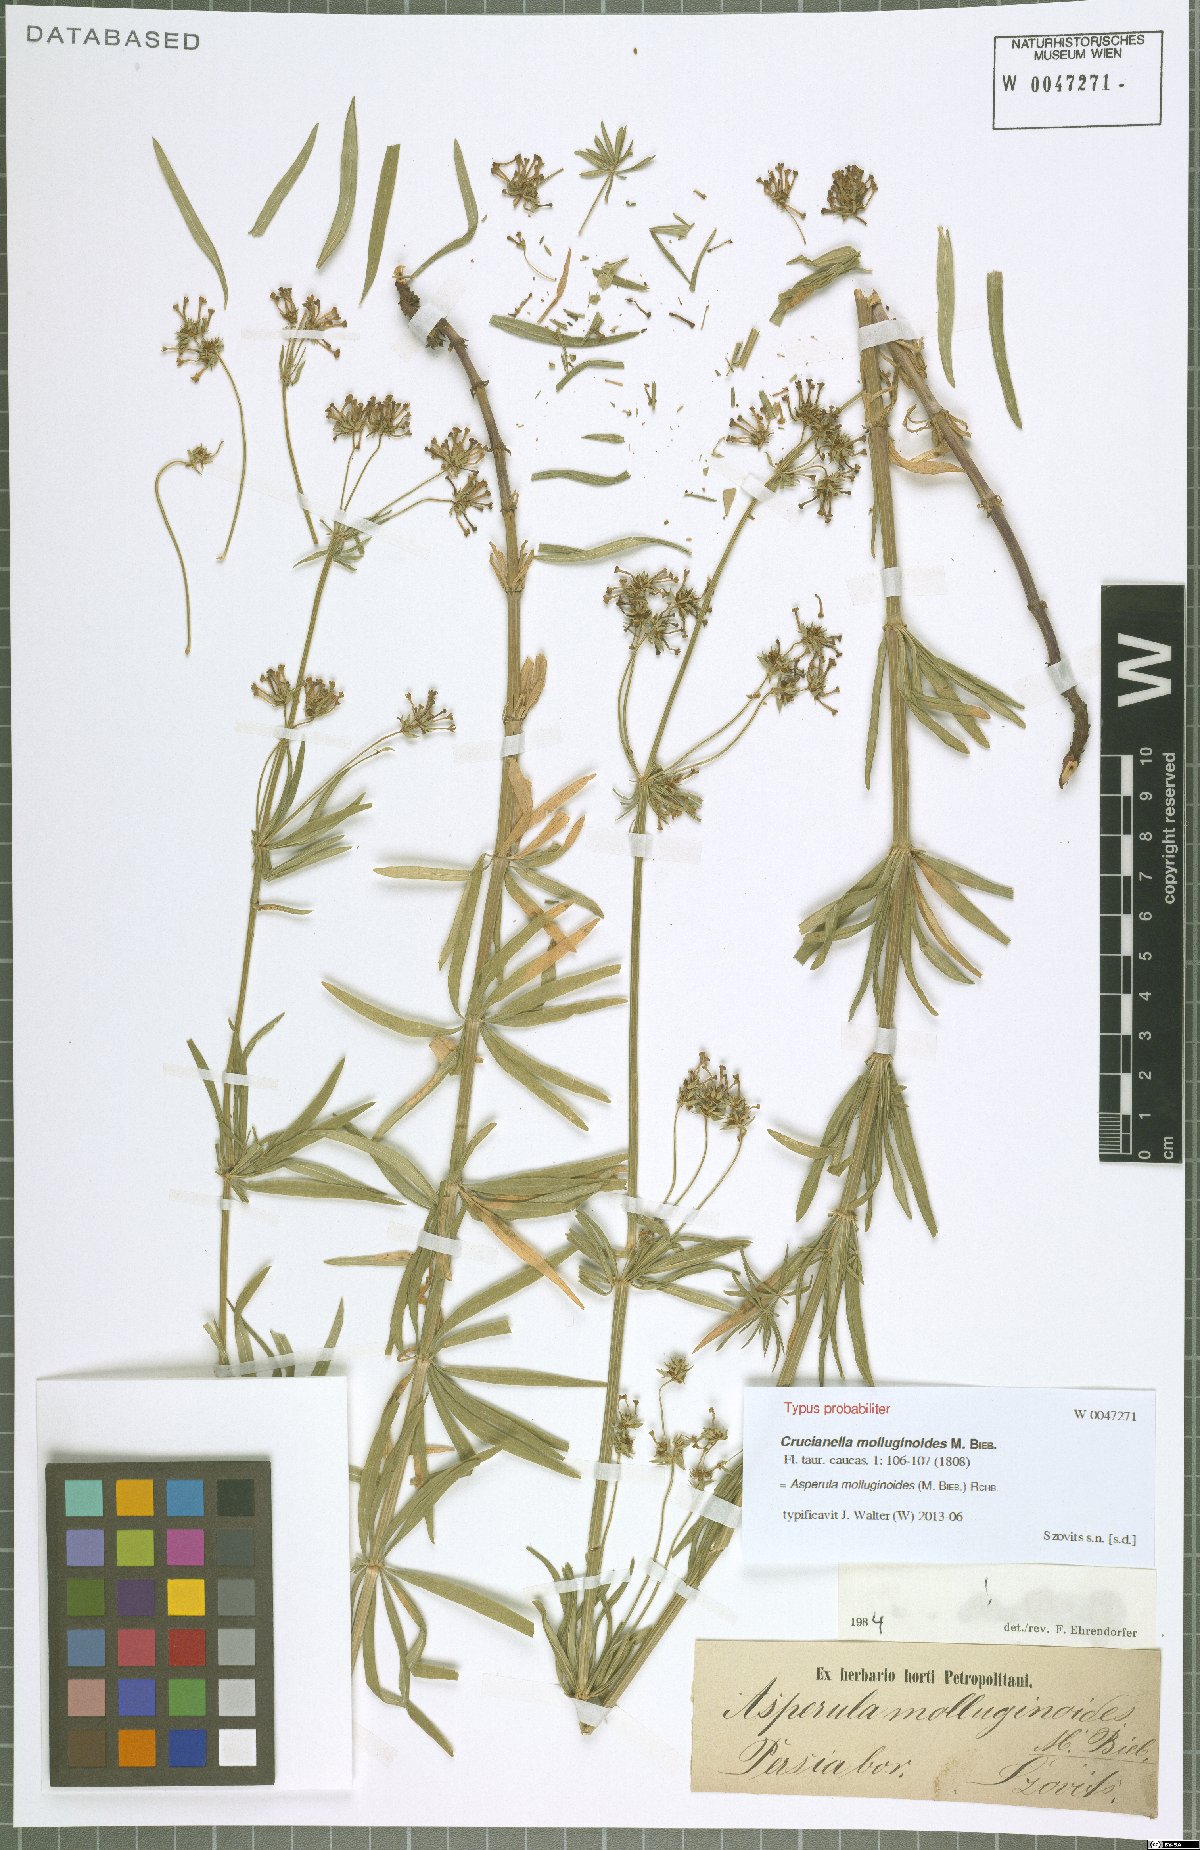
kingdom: Plantae
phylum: Tracheophyta
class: Magnoliopsida
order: Gentianales
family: Rubiaceae
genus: Asperula
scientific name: Asperula molluginoides
